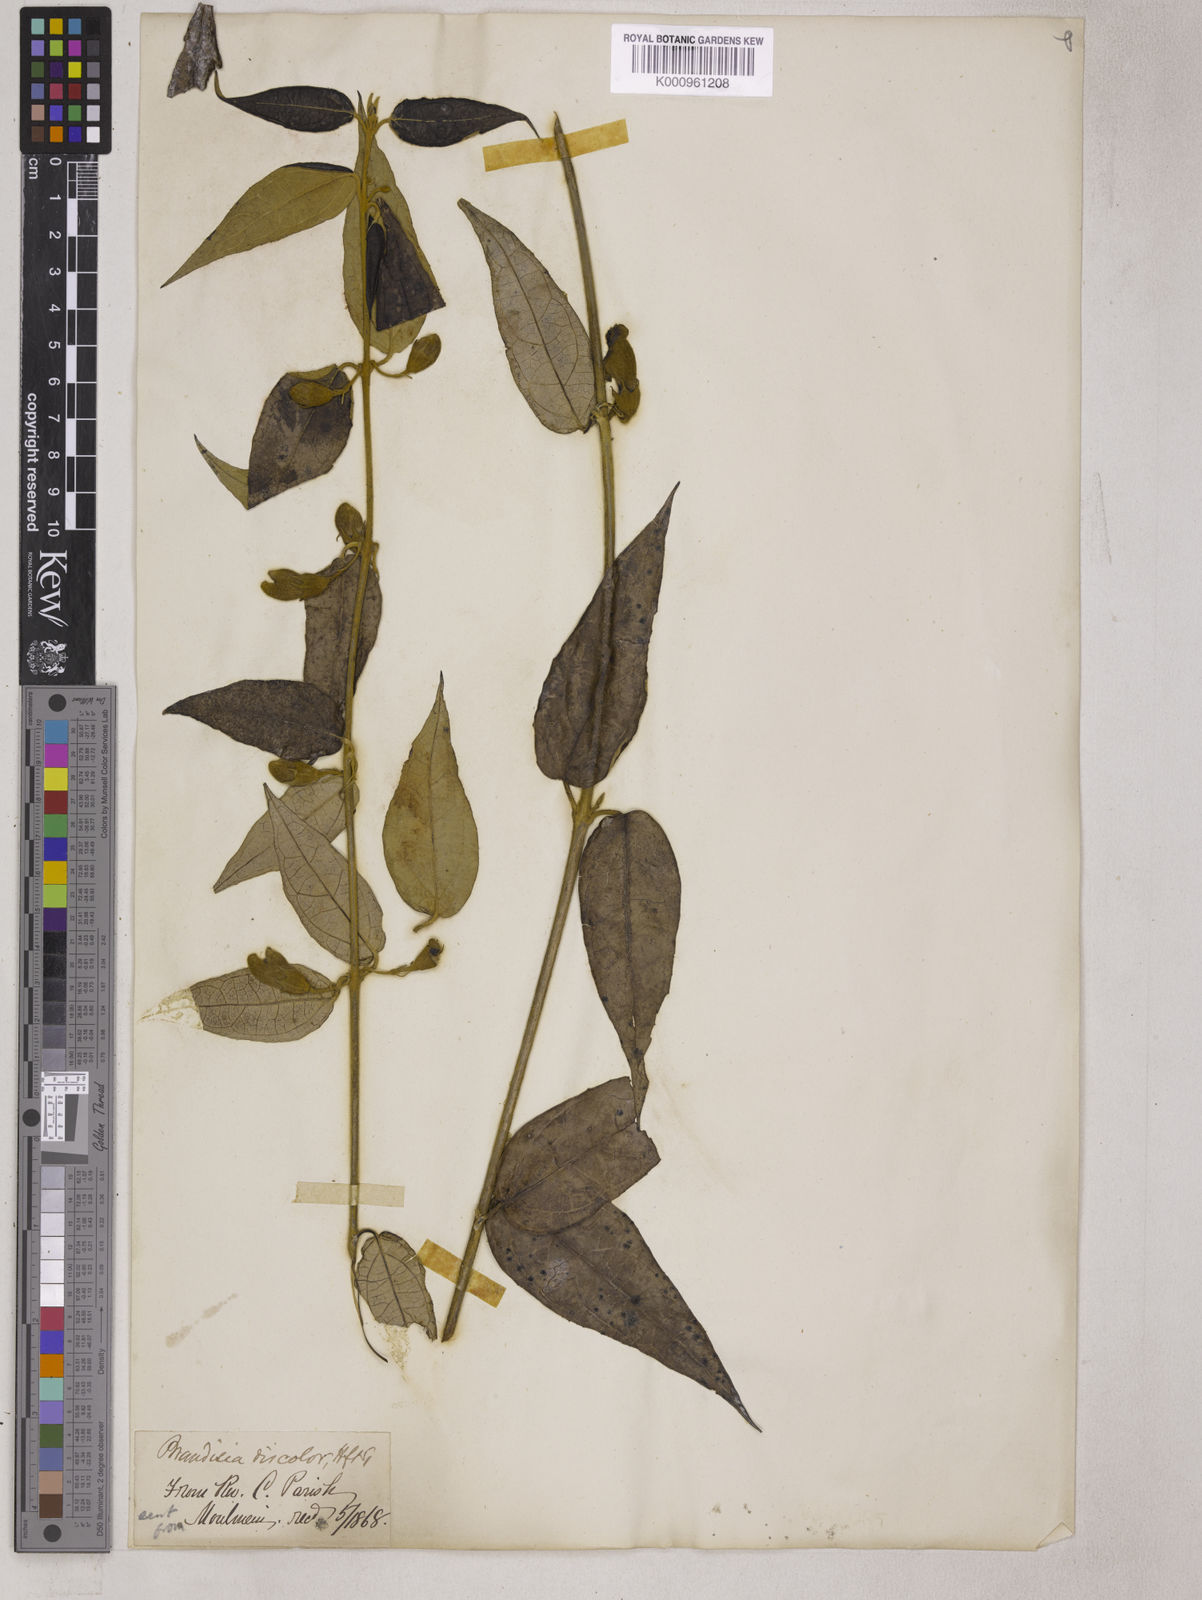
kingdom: Plantae
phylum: Tracheophyta
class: Magnoliopsida
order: Lamiales
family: Orobanchaceae
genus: Brandisia
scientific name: Brandisia discolor
